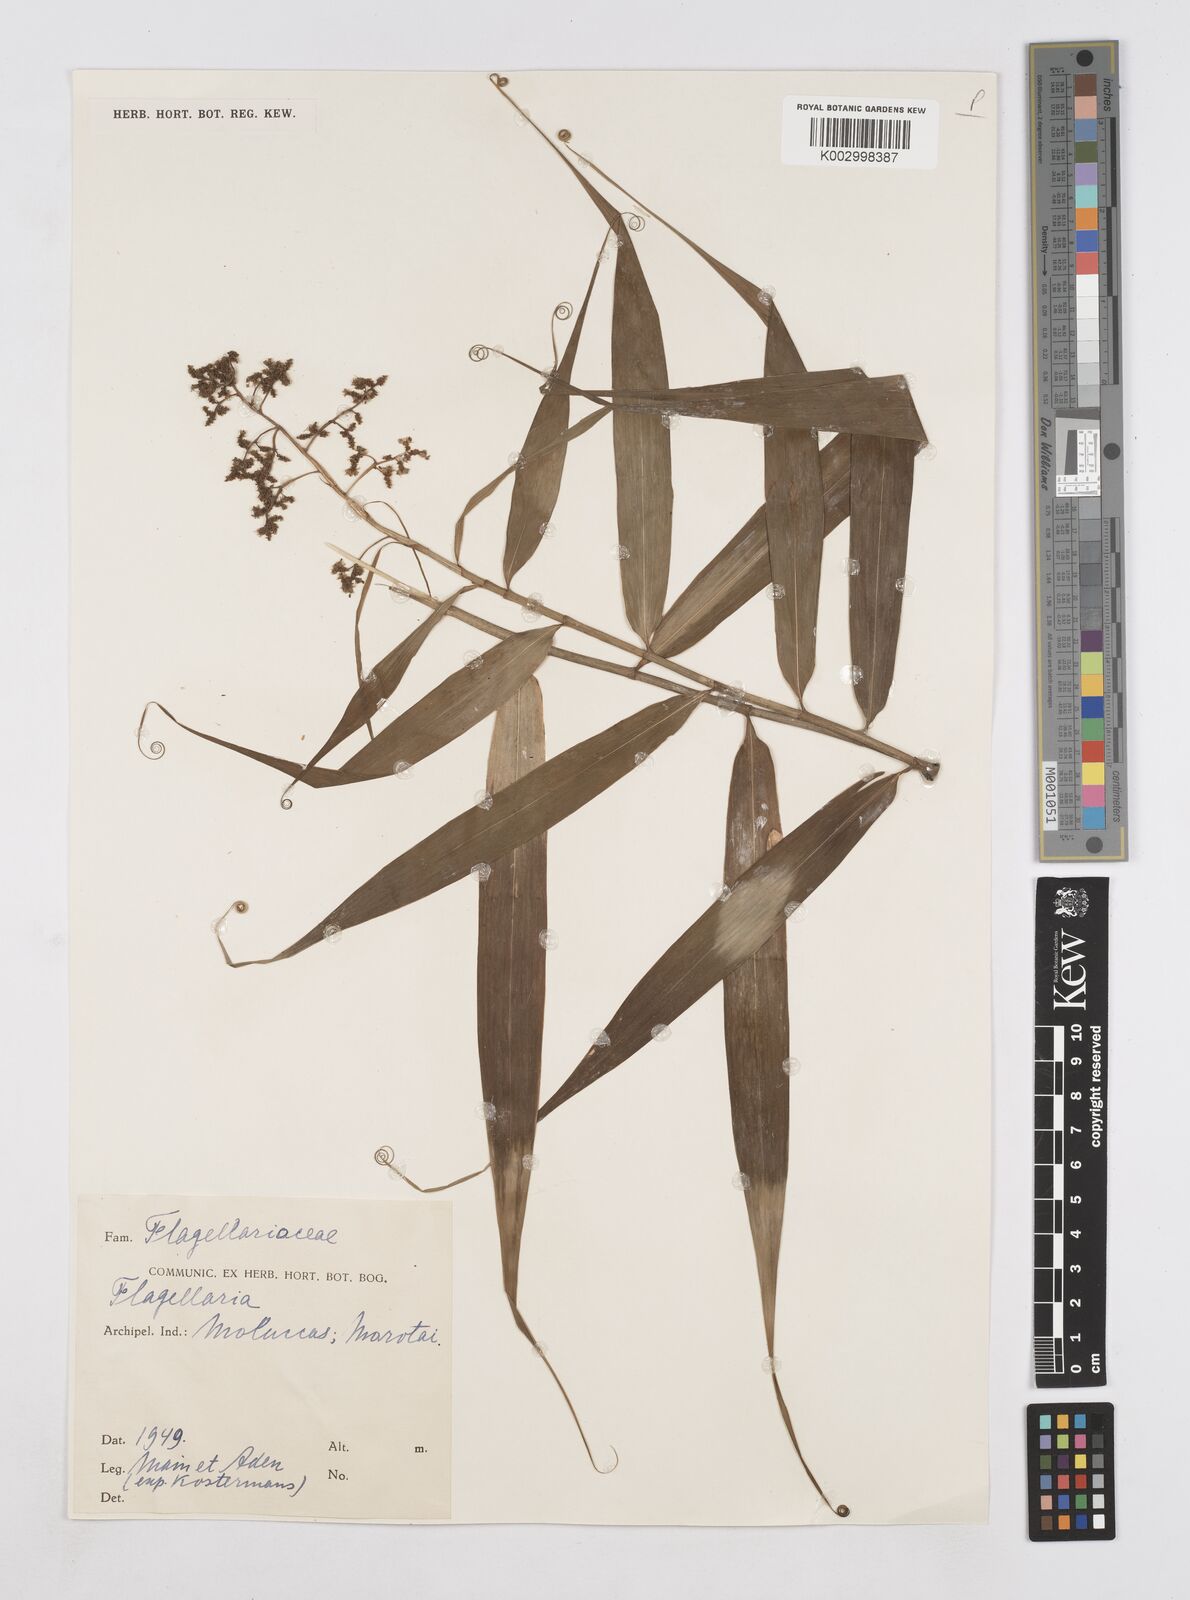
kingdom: Plantae
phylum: Tracheophyta
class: Liliopsida
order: Poales
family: Flagellariaceae
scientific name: Flagellariaceae
